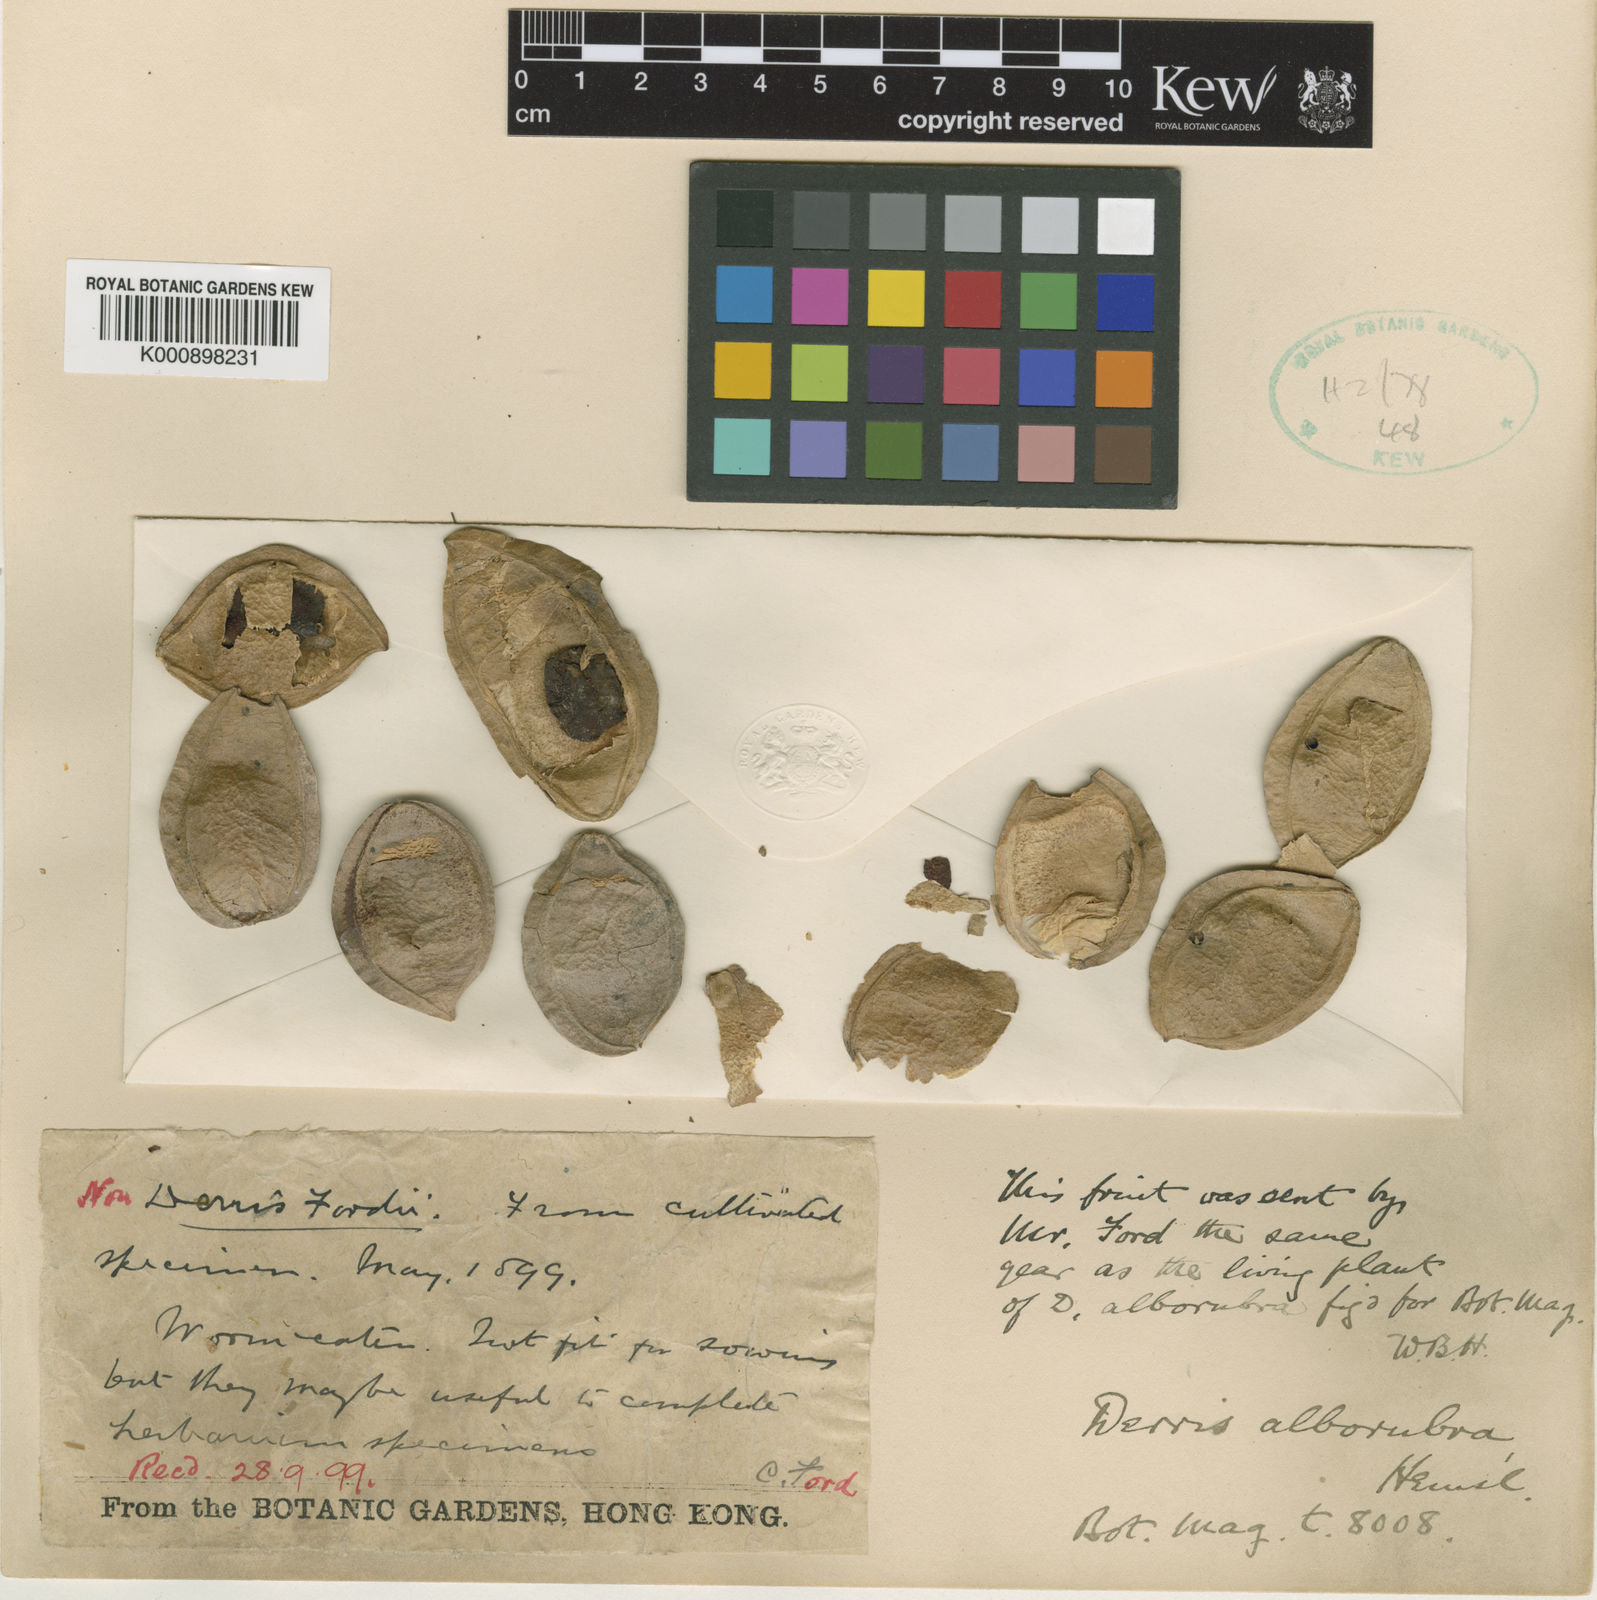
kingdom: Plantae
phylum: Tracheophyta
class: Magnoliopsida
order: Fabales
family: Fabaceae
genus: Derris
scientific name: Derris alborubra
